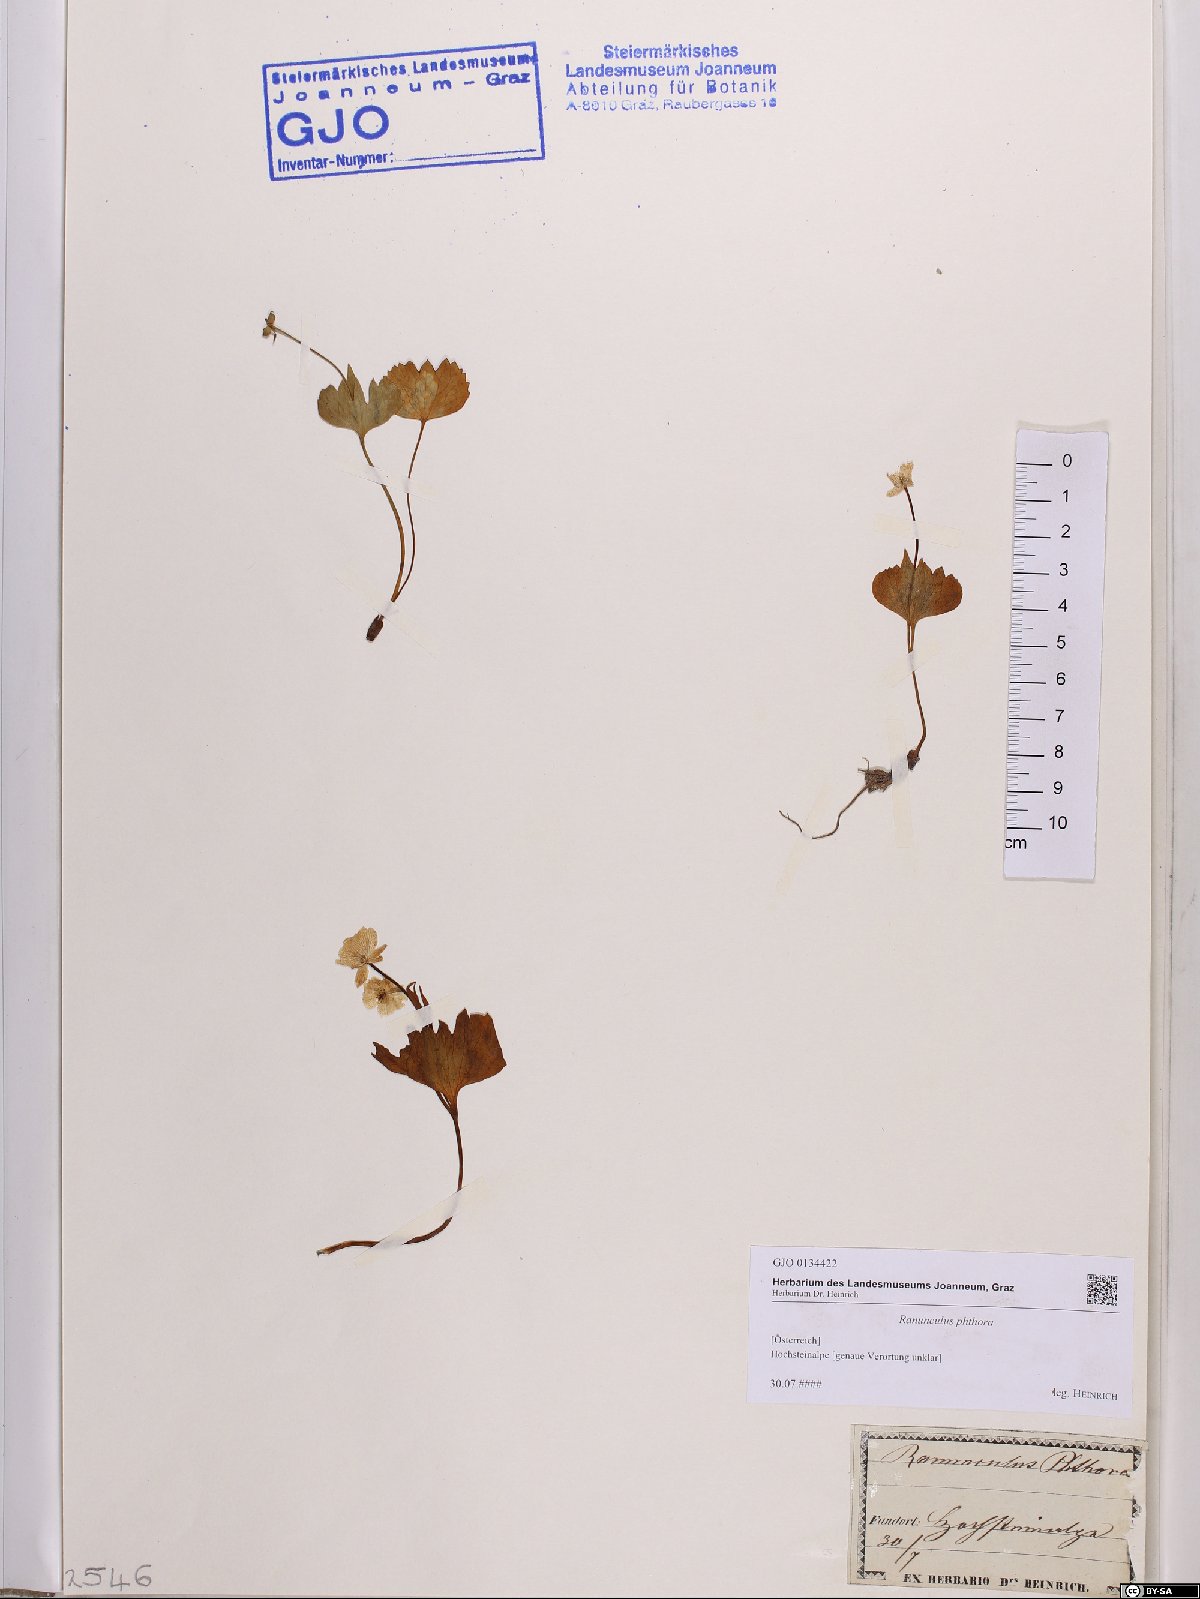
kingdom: Plantae
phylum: Tracheophyta
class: Magnoliopsida
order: Ranunculales
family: Ranunculaceae
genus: Ranunculus
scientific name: Ranunculus phthora
